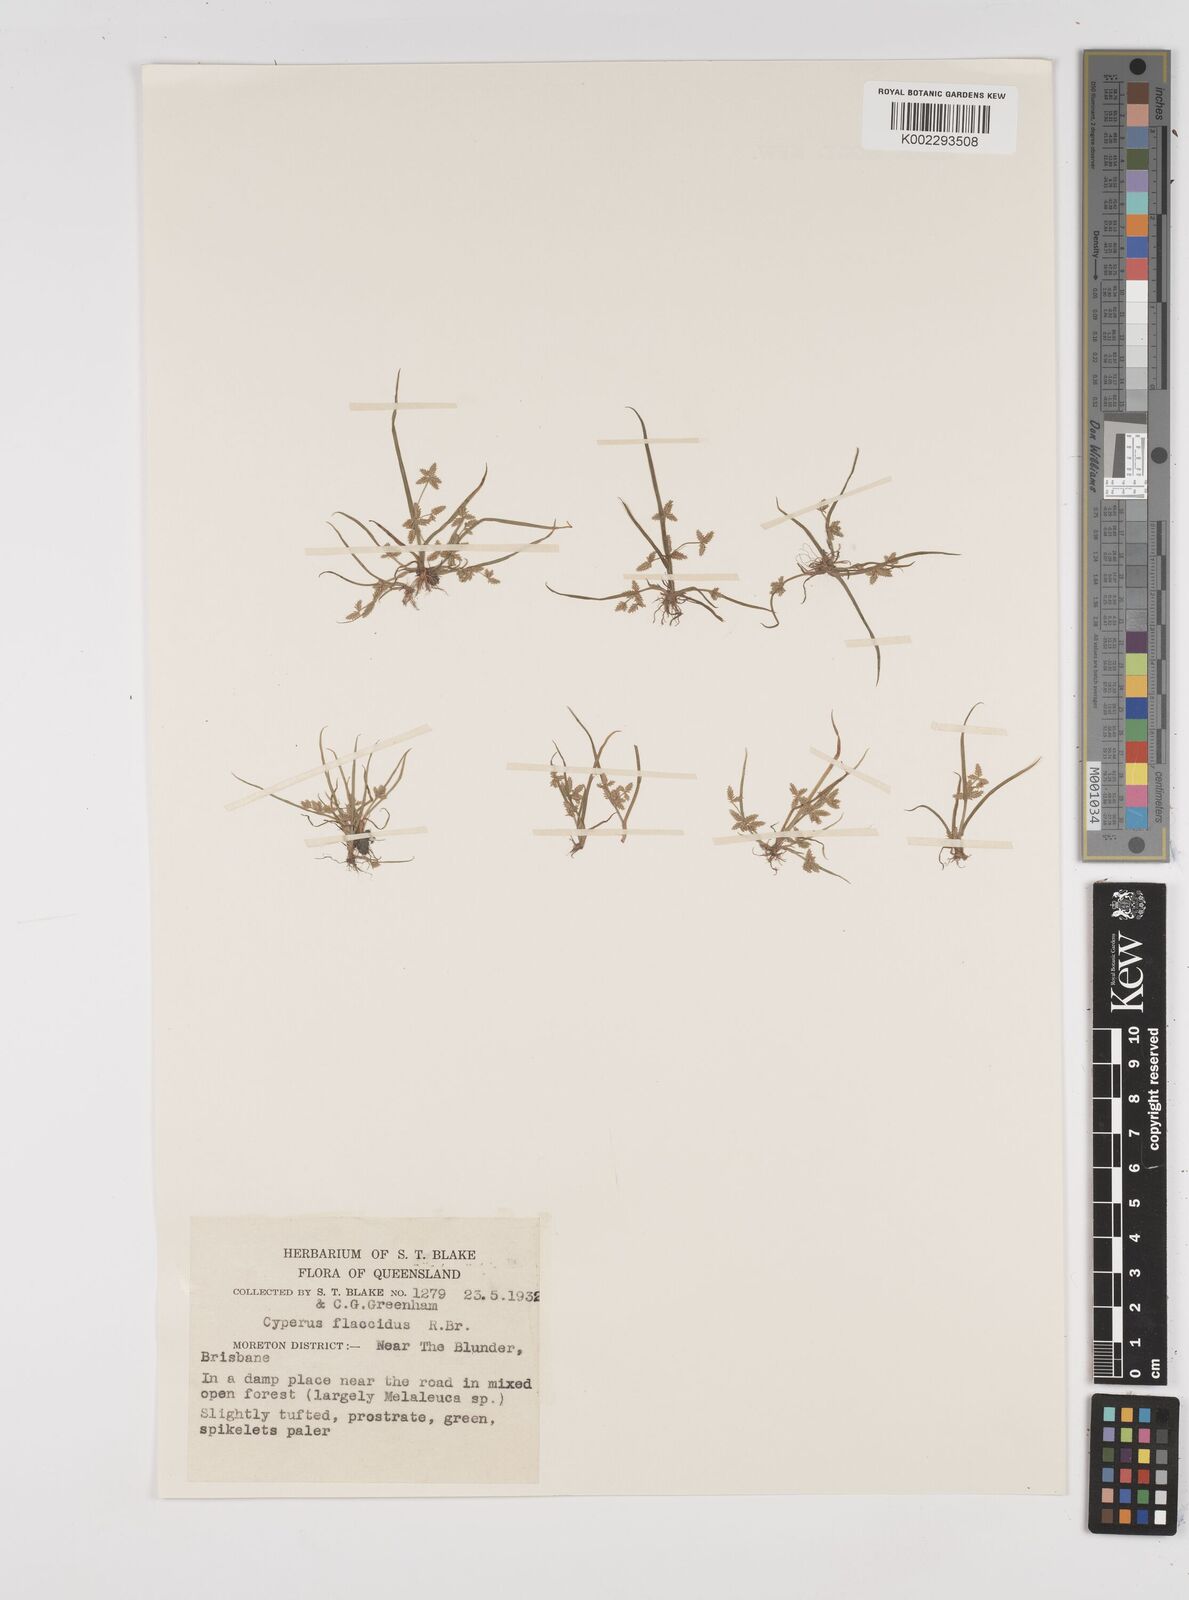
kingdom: Plantae
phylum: Tracheophyta
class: Liliopsida
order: Poales
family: Cyperaceae
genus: Cyperus
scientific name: Cyperus flaccidus
